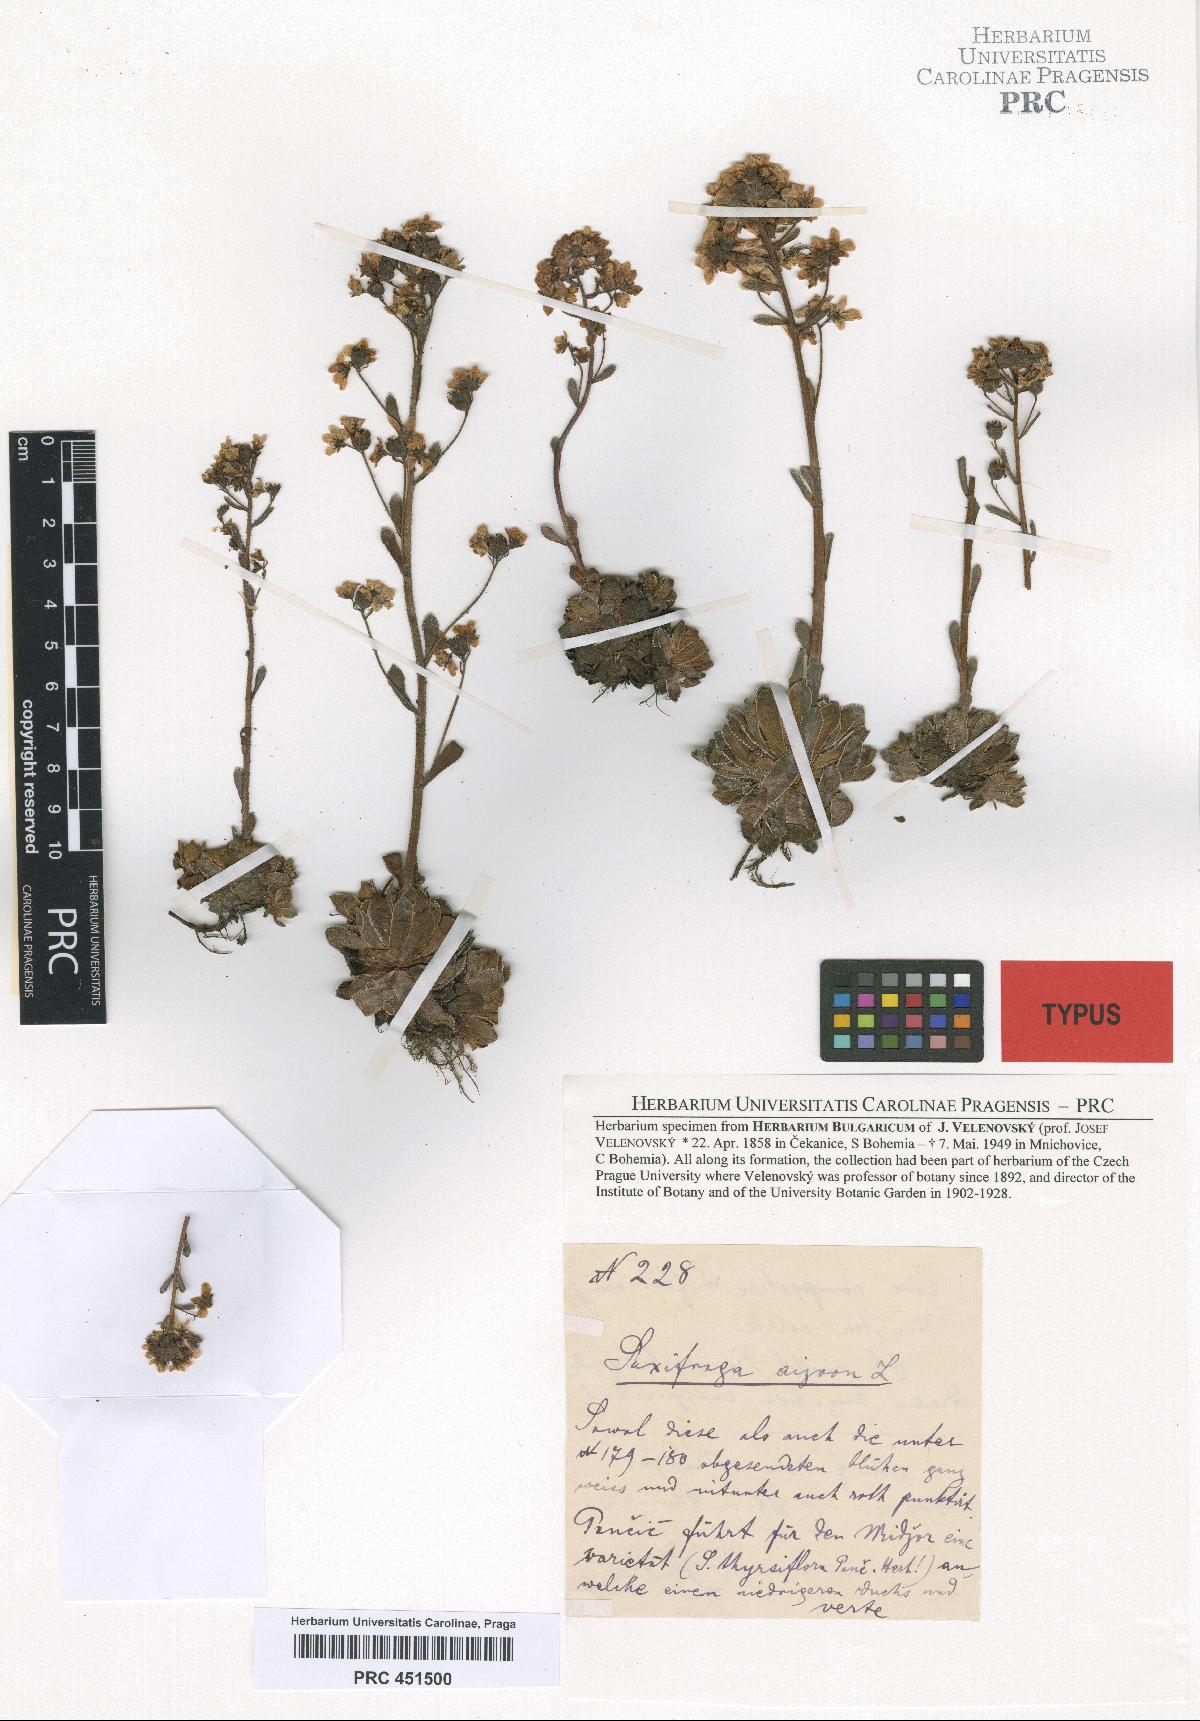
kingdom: Plantae
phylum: Tracheophyta
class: Magnoliopsida
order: Saxifragales
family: Saxifragaceae
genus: Saxifraga
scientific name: Saxifraga paniculata
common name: Livelong saxifrage
